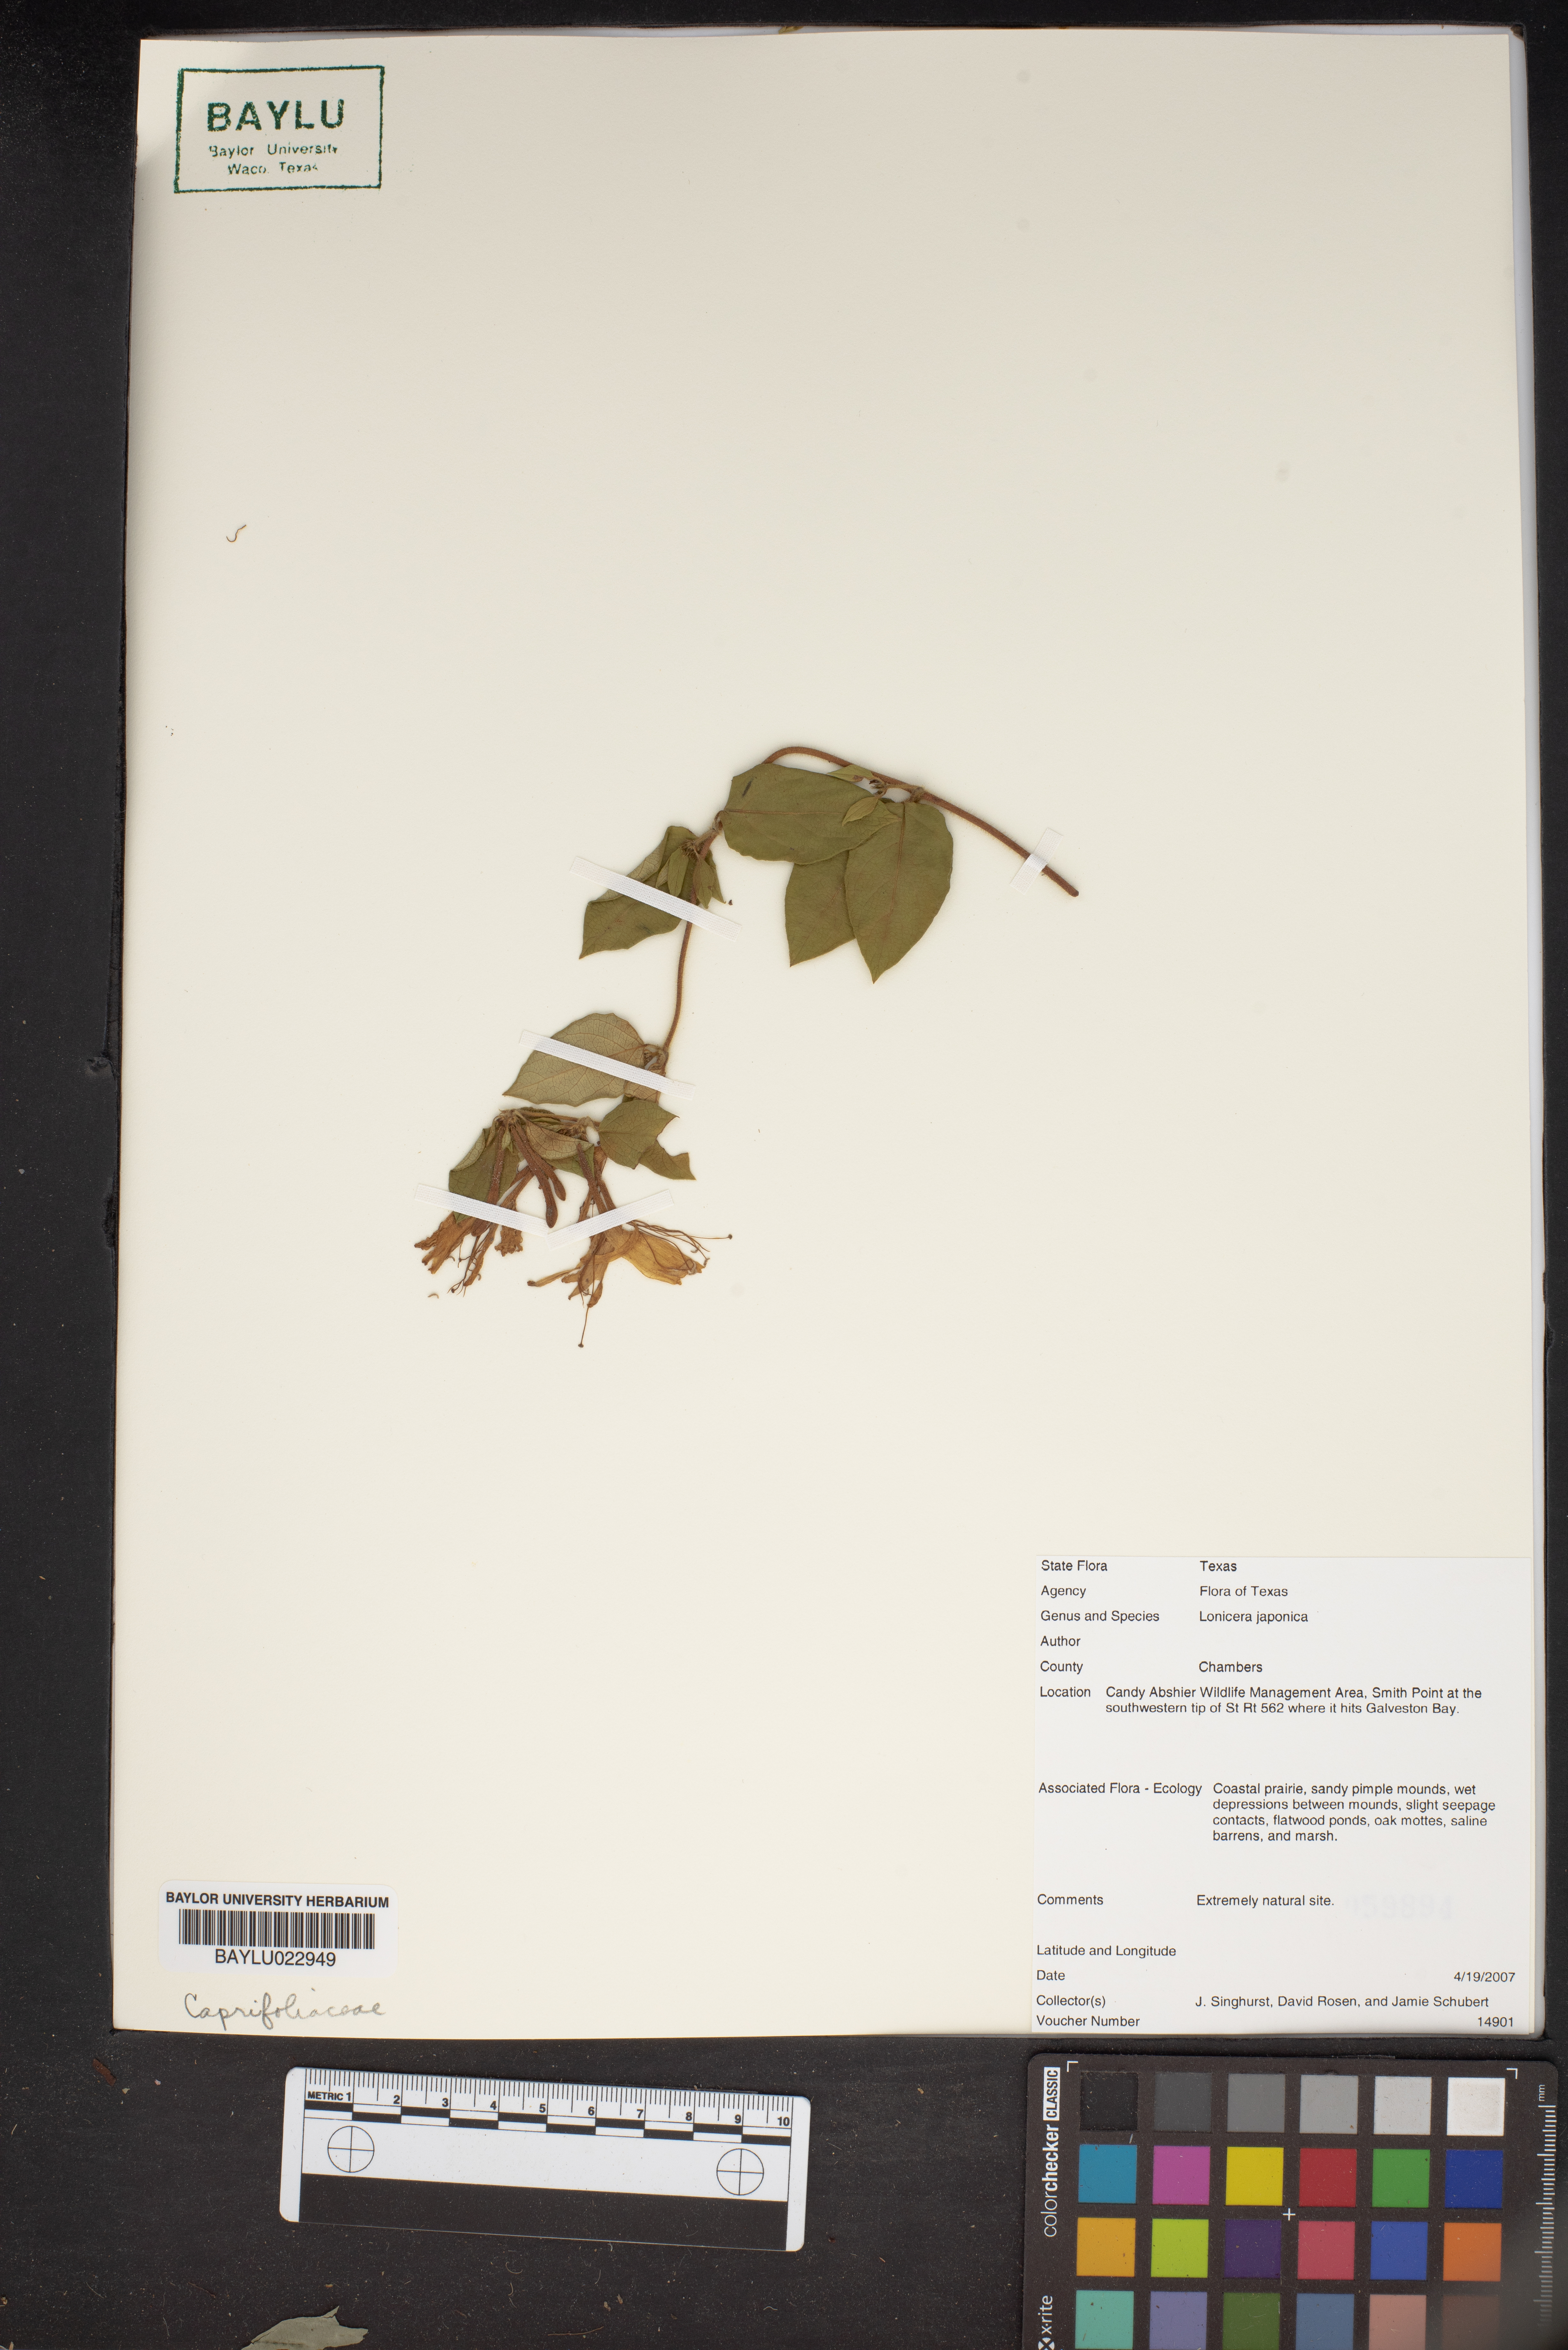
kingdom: Plantae
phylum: Tracheophyta
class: Magnoliopsida
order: Dipsacales
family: Caprifoliaceae
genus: Lonicera
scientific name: Lonicera japonica
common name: Japanese honeysuckle
